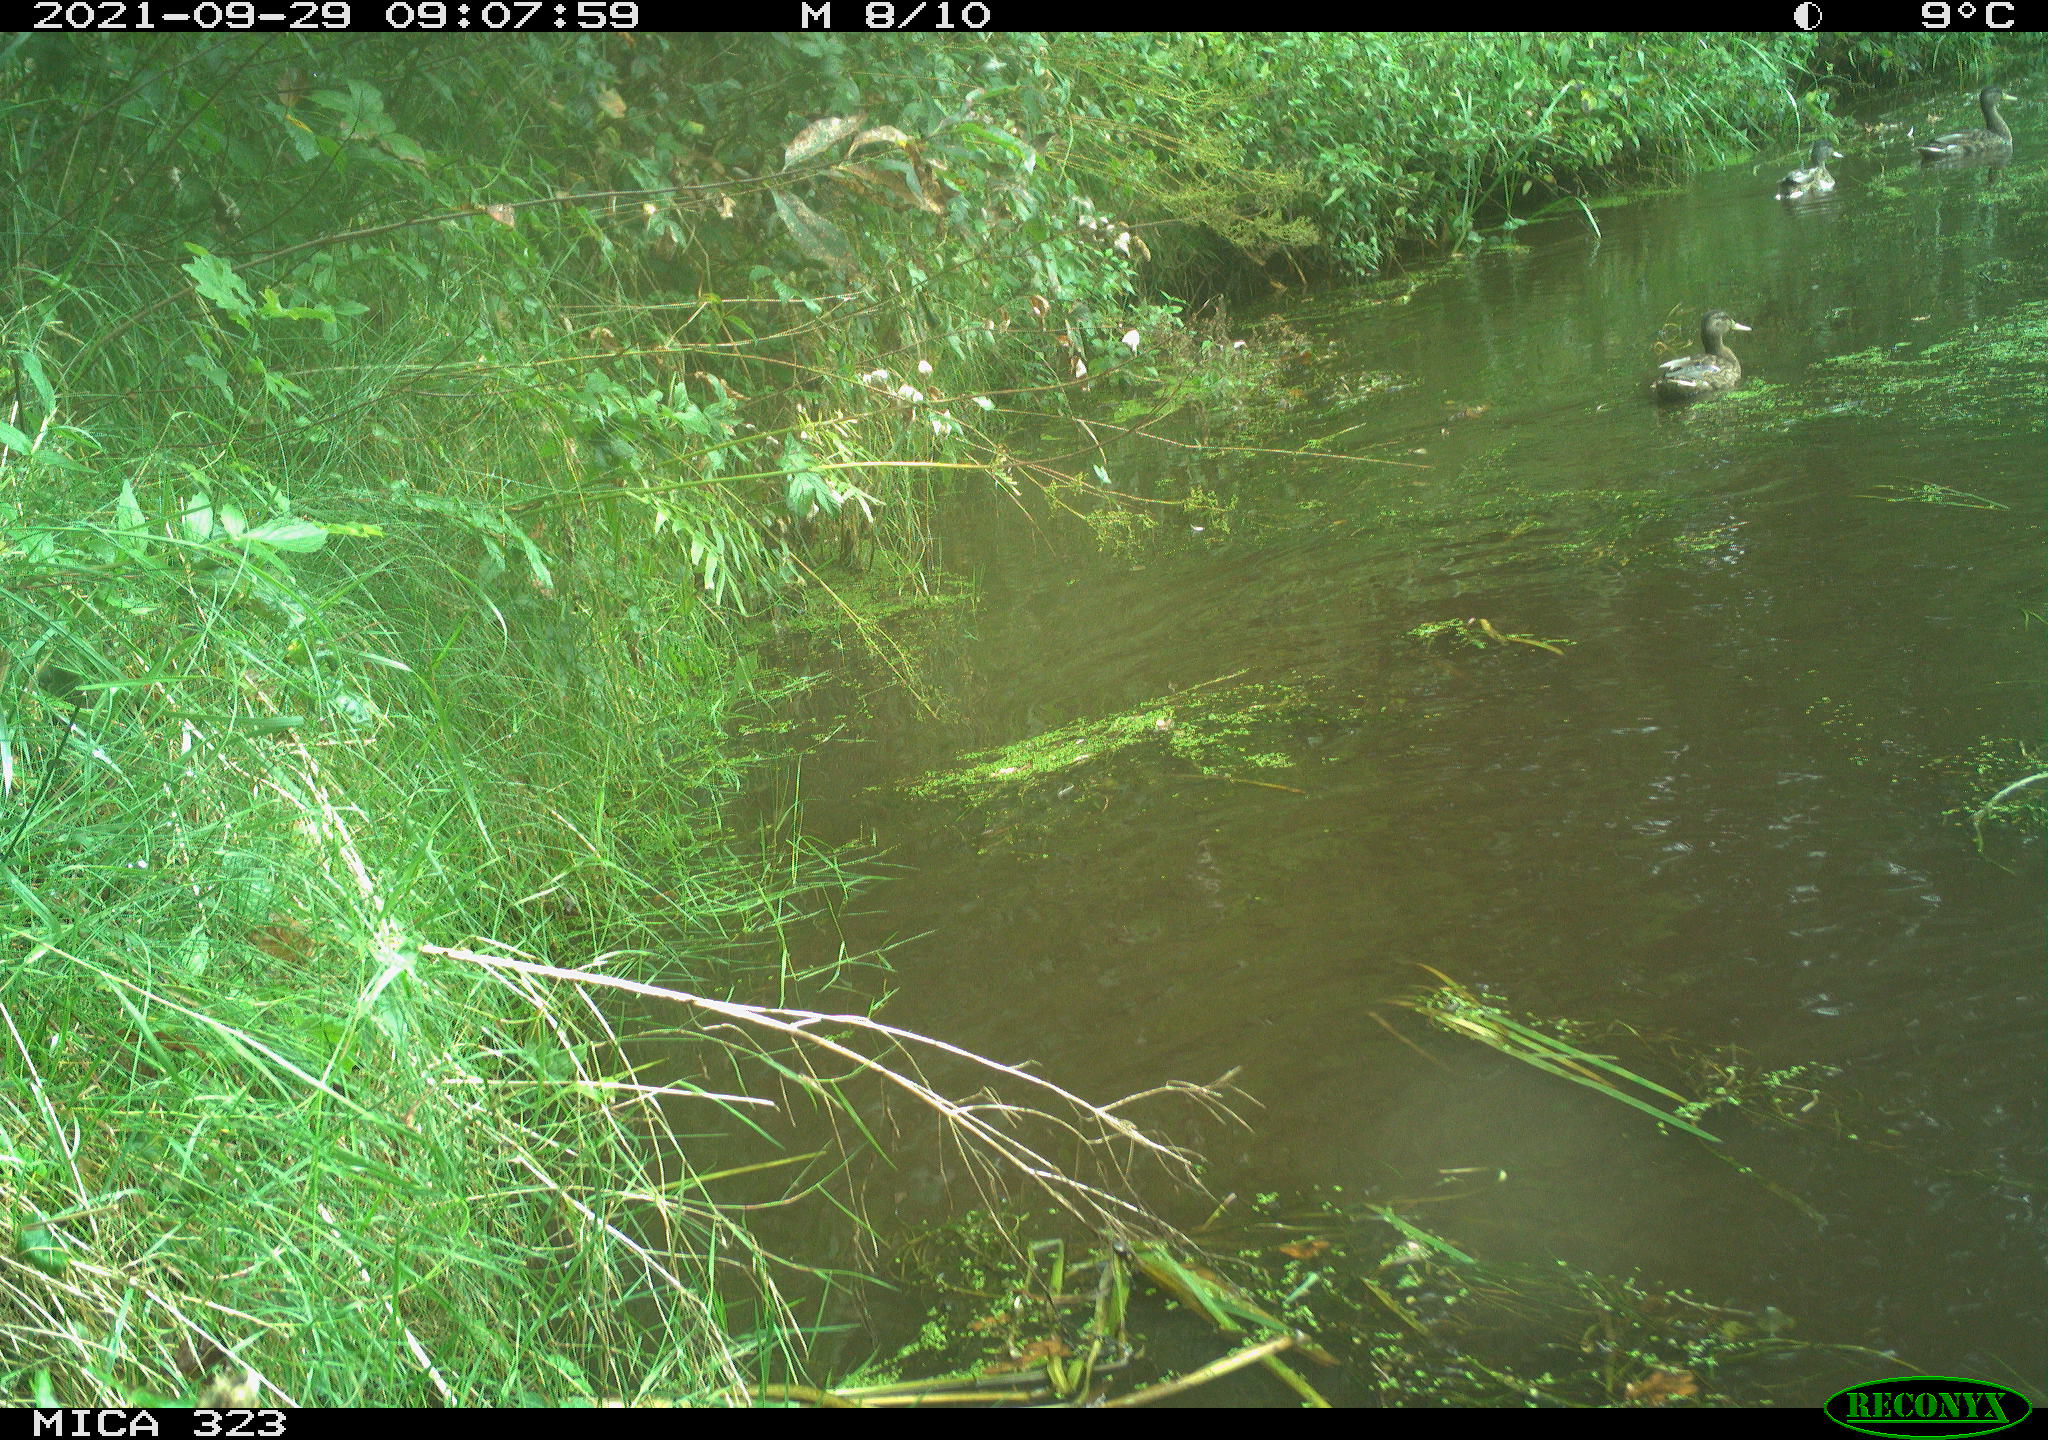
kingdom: Animalia
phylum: Chordata
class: Aves
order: Anseriformes
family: Anatidae
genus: Anas
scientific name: Anas platyrhynchos
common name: Mallard
